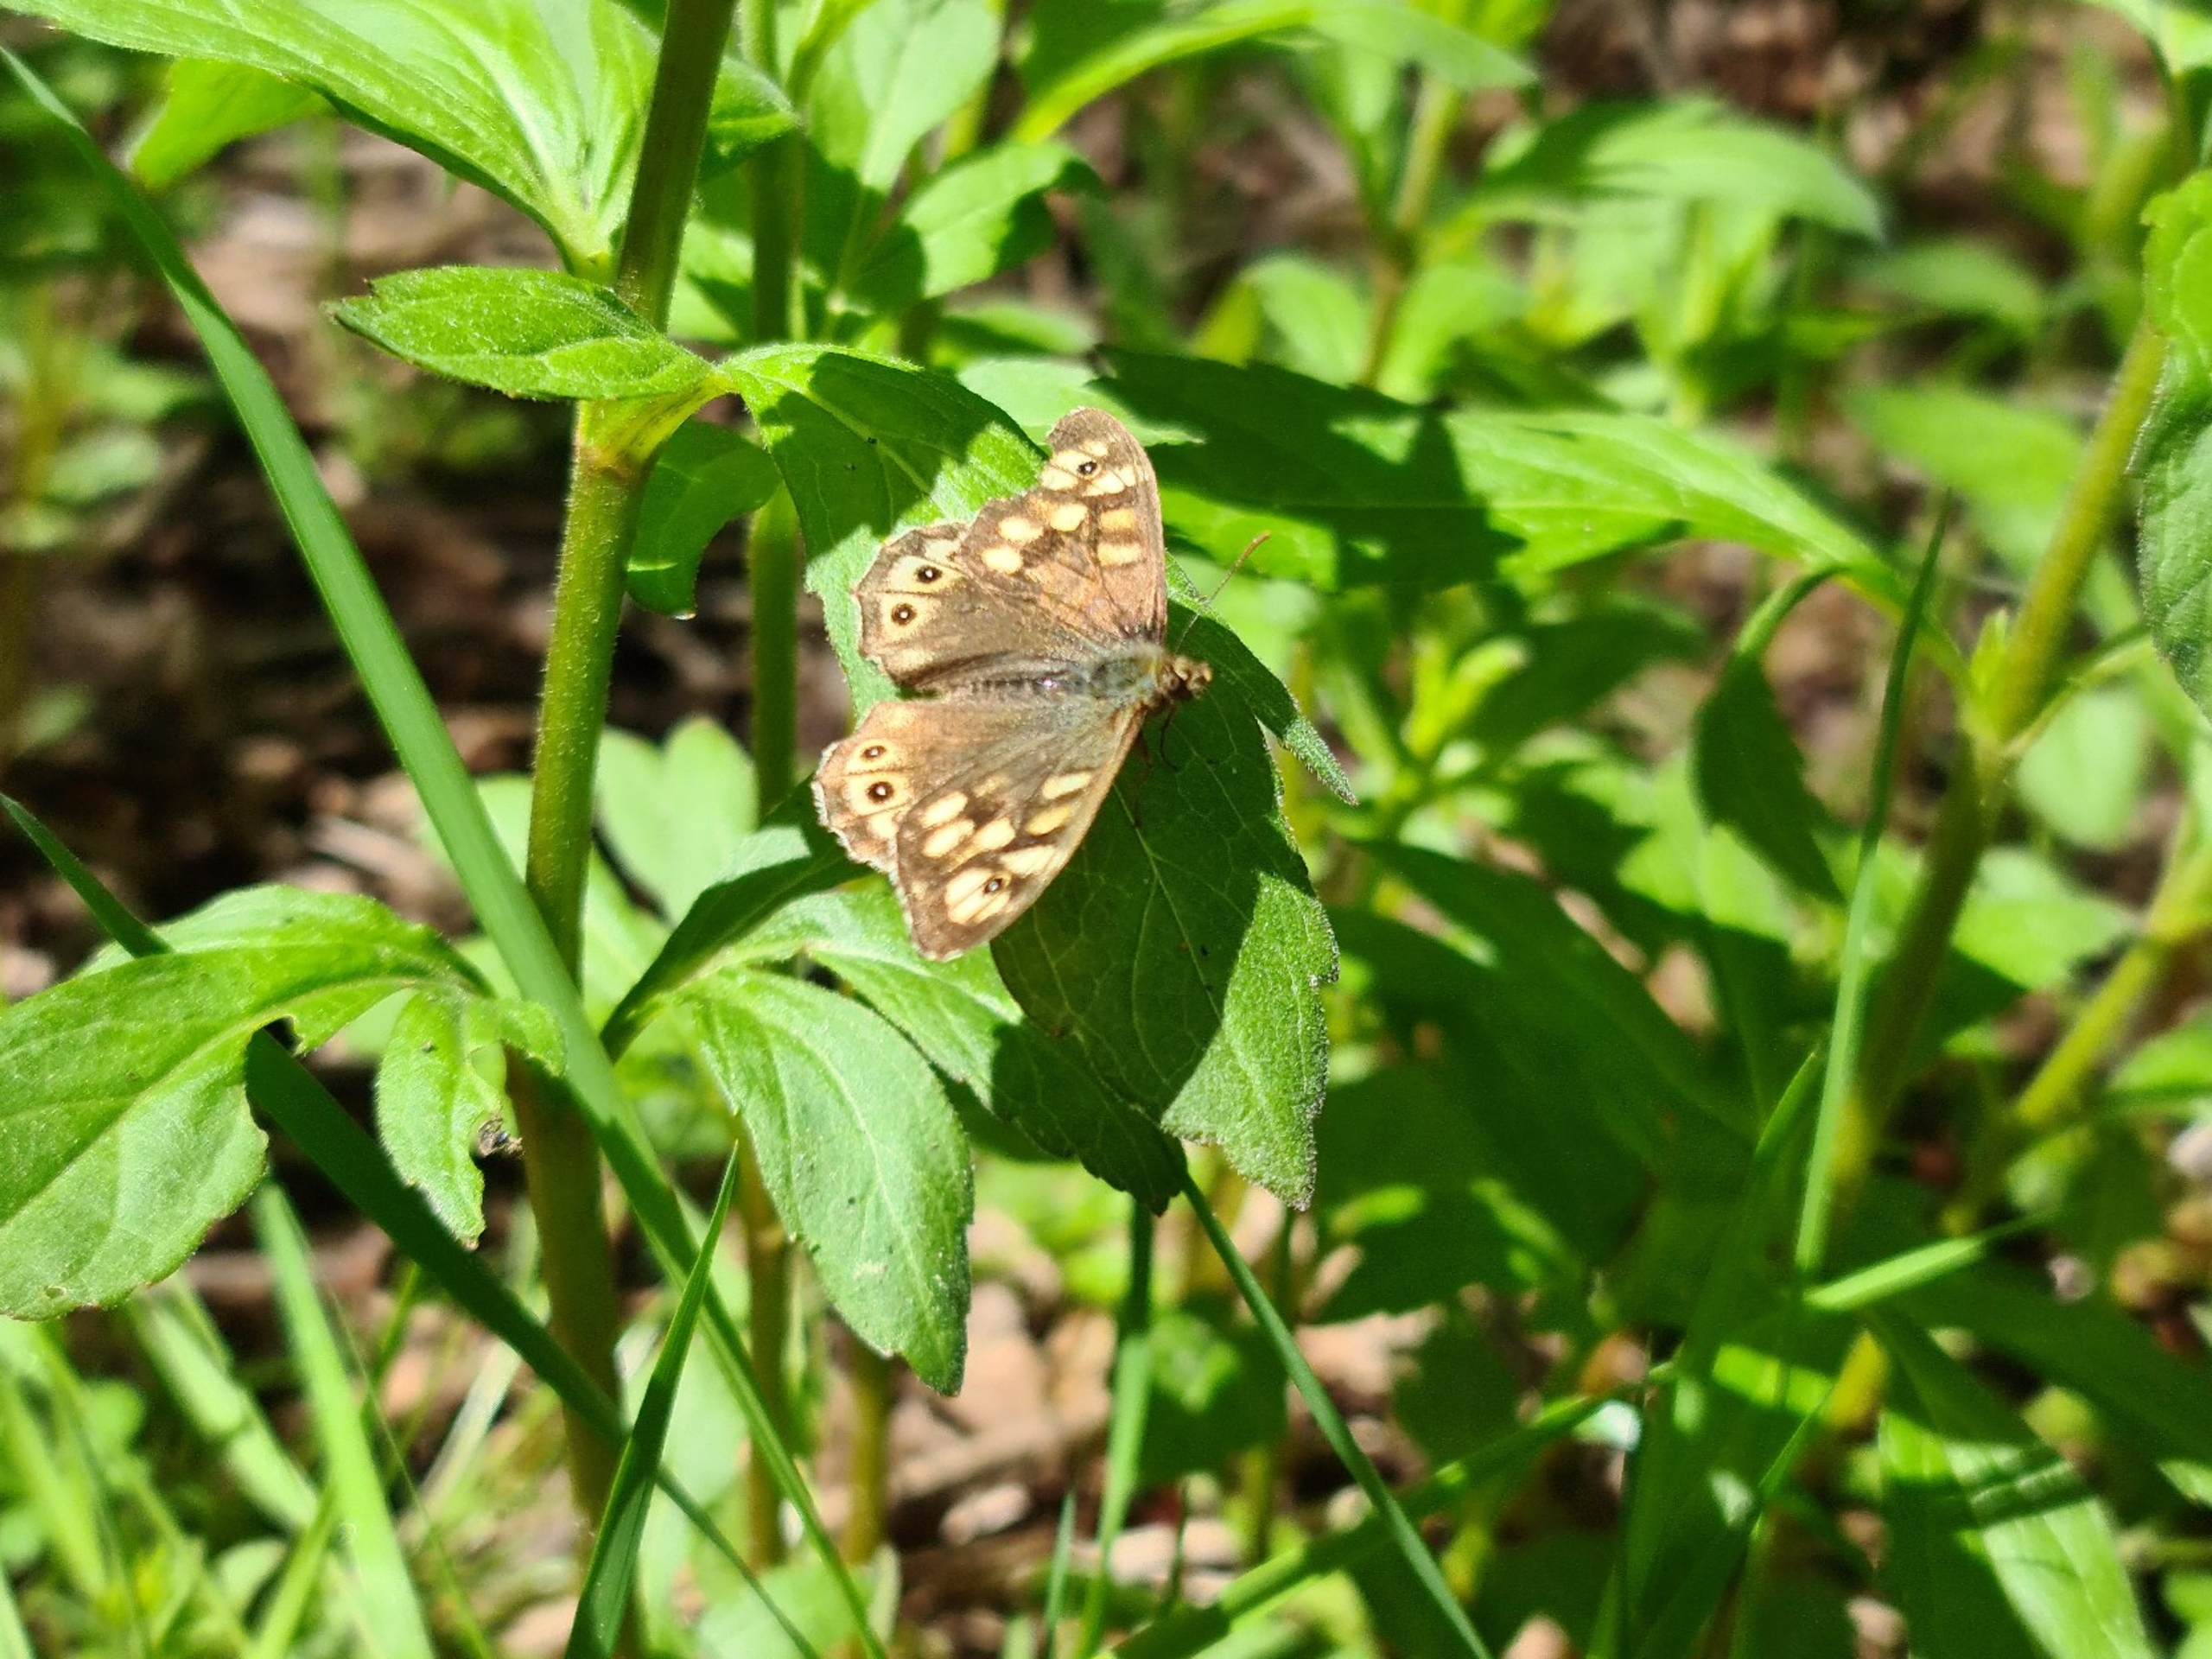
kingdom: Animalia
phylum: Arthropoda
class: Insecta
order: Lepidoptera
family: Nymphalidae
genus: Pararge
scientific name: Pararge aegeria
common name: Skovrandøje
